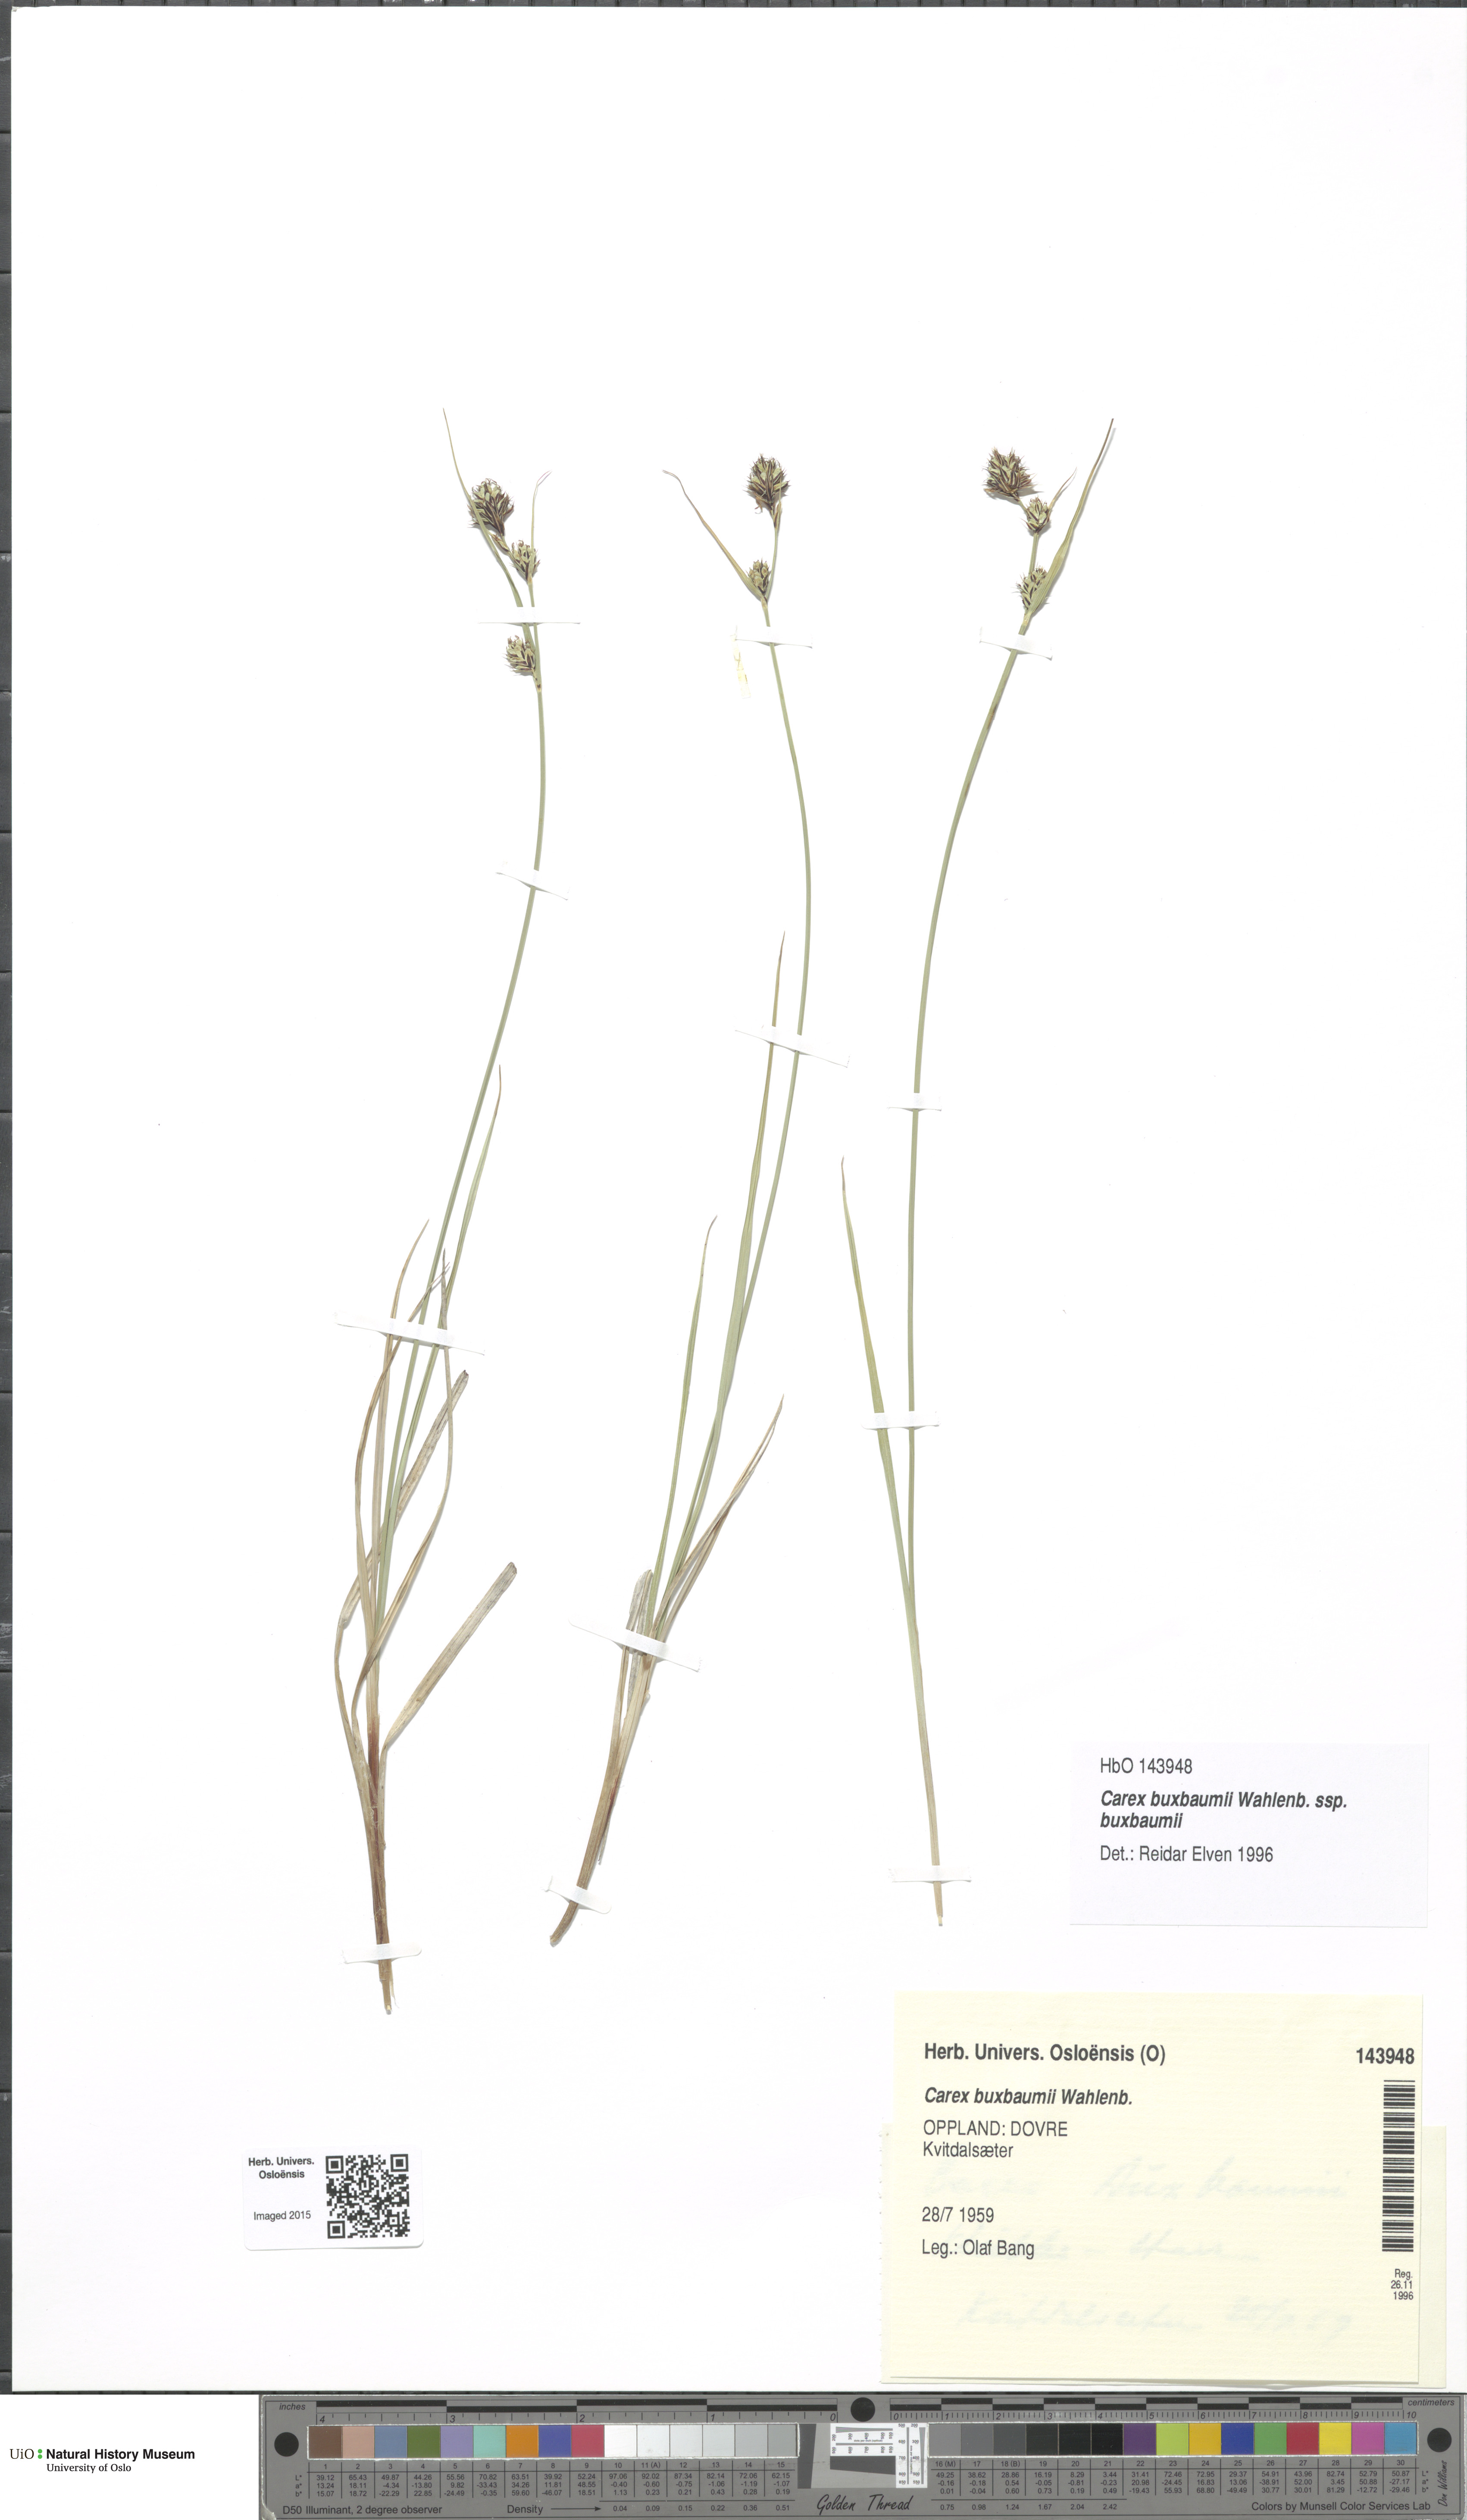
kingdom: Plantae
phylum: Tracheophyta
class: Liliopsida
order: Poales
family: Cyperaceae
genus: Carex
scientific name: Carex buxbaumii
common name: Club sedge
